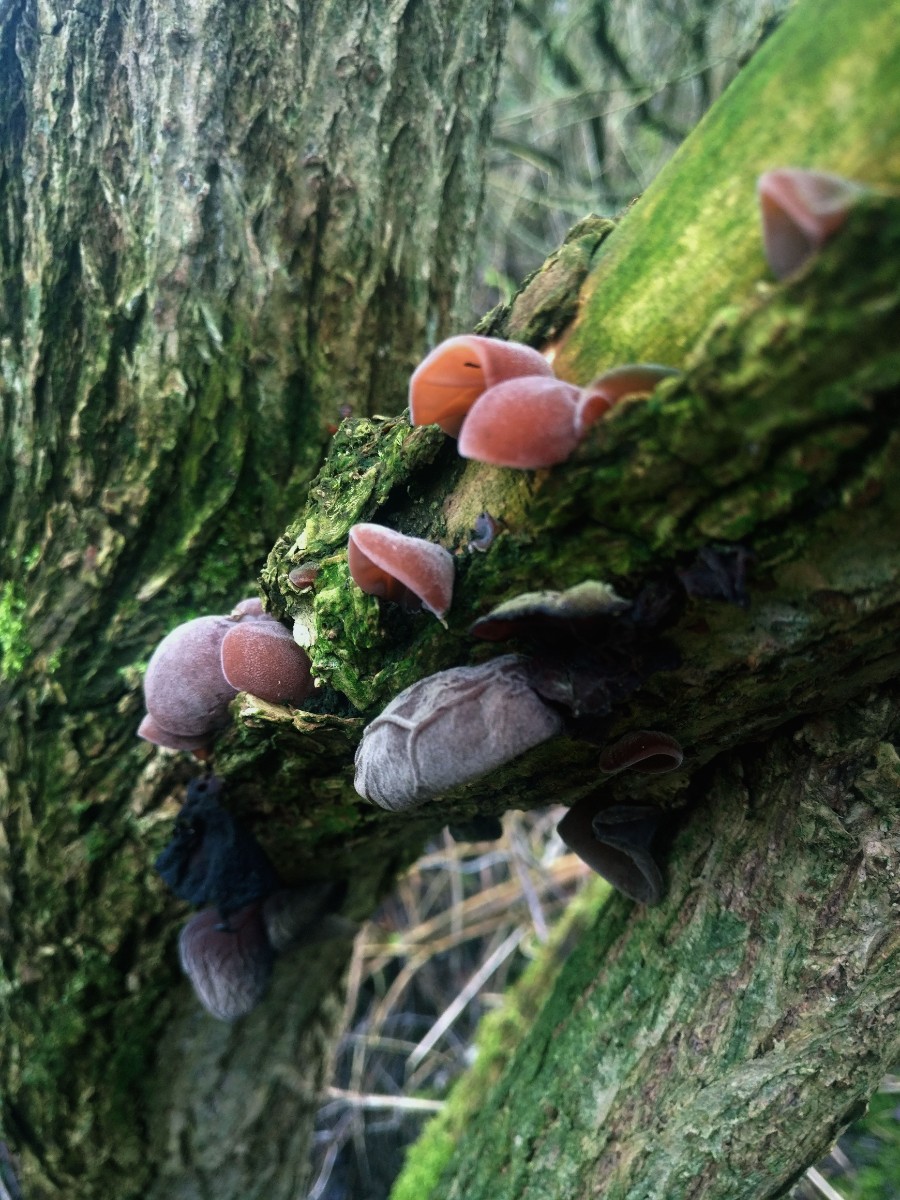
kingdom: Fungi
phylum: Basidiomycota
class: Agaricomycetes
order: Auriculariales
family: Auriculariaceae
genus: Auricularia
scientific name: Auricularia auricula-judae
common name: almindelig judasøre
